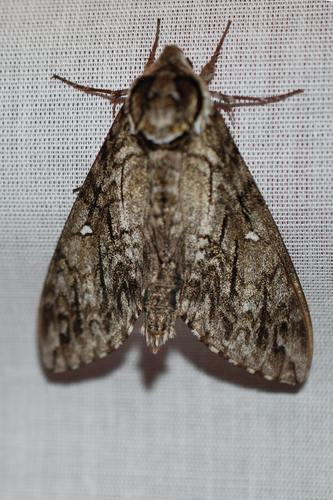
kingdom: Animalia
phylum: Arthropoda
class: Insecta
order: Lepidoptera
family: Sphingidae
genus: Ceratomia
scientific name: Ceratomia undulosa
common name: Waved sphinx
